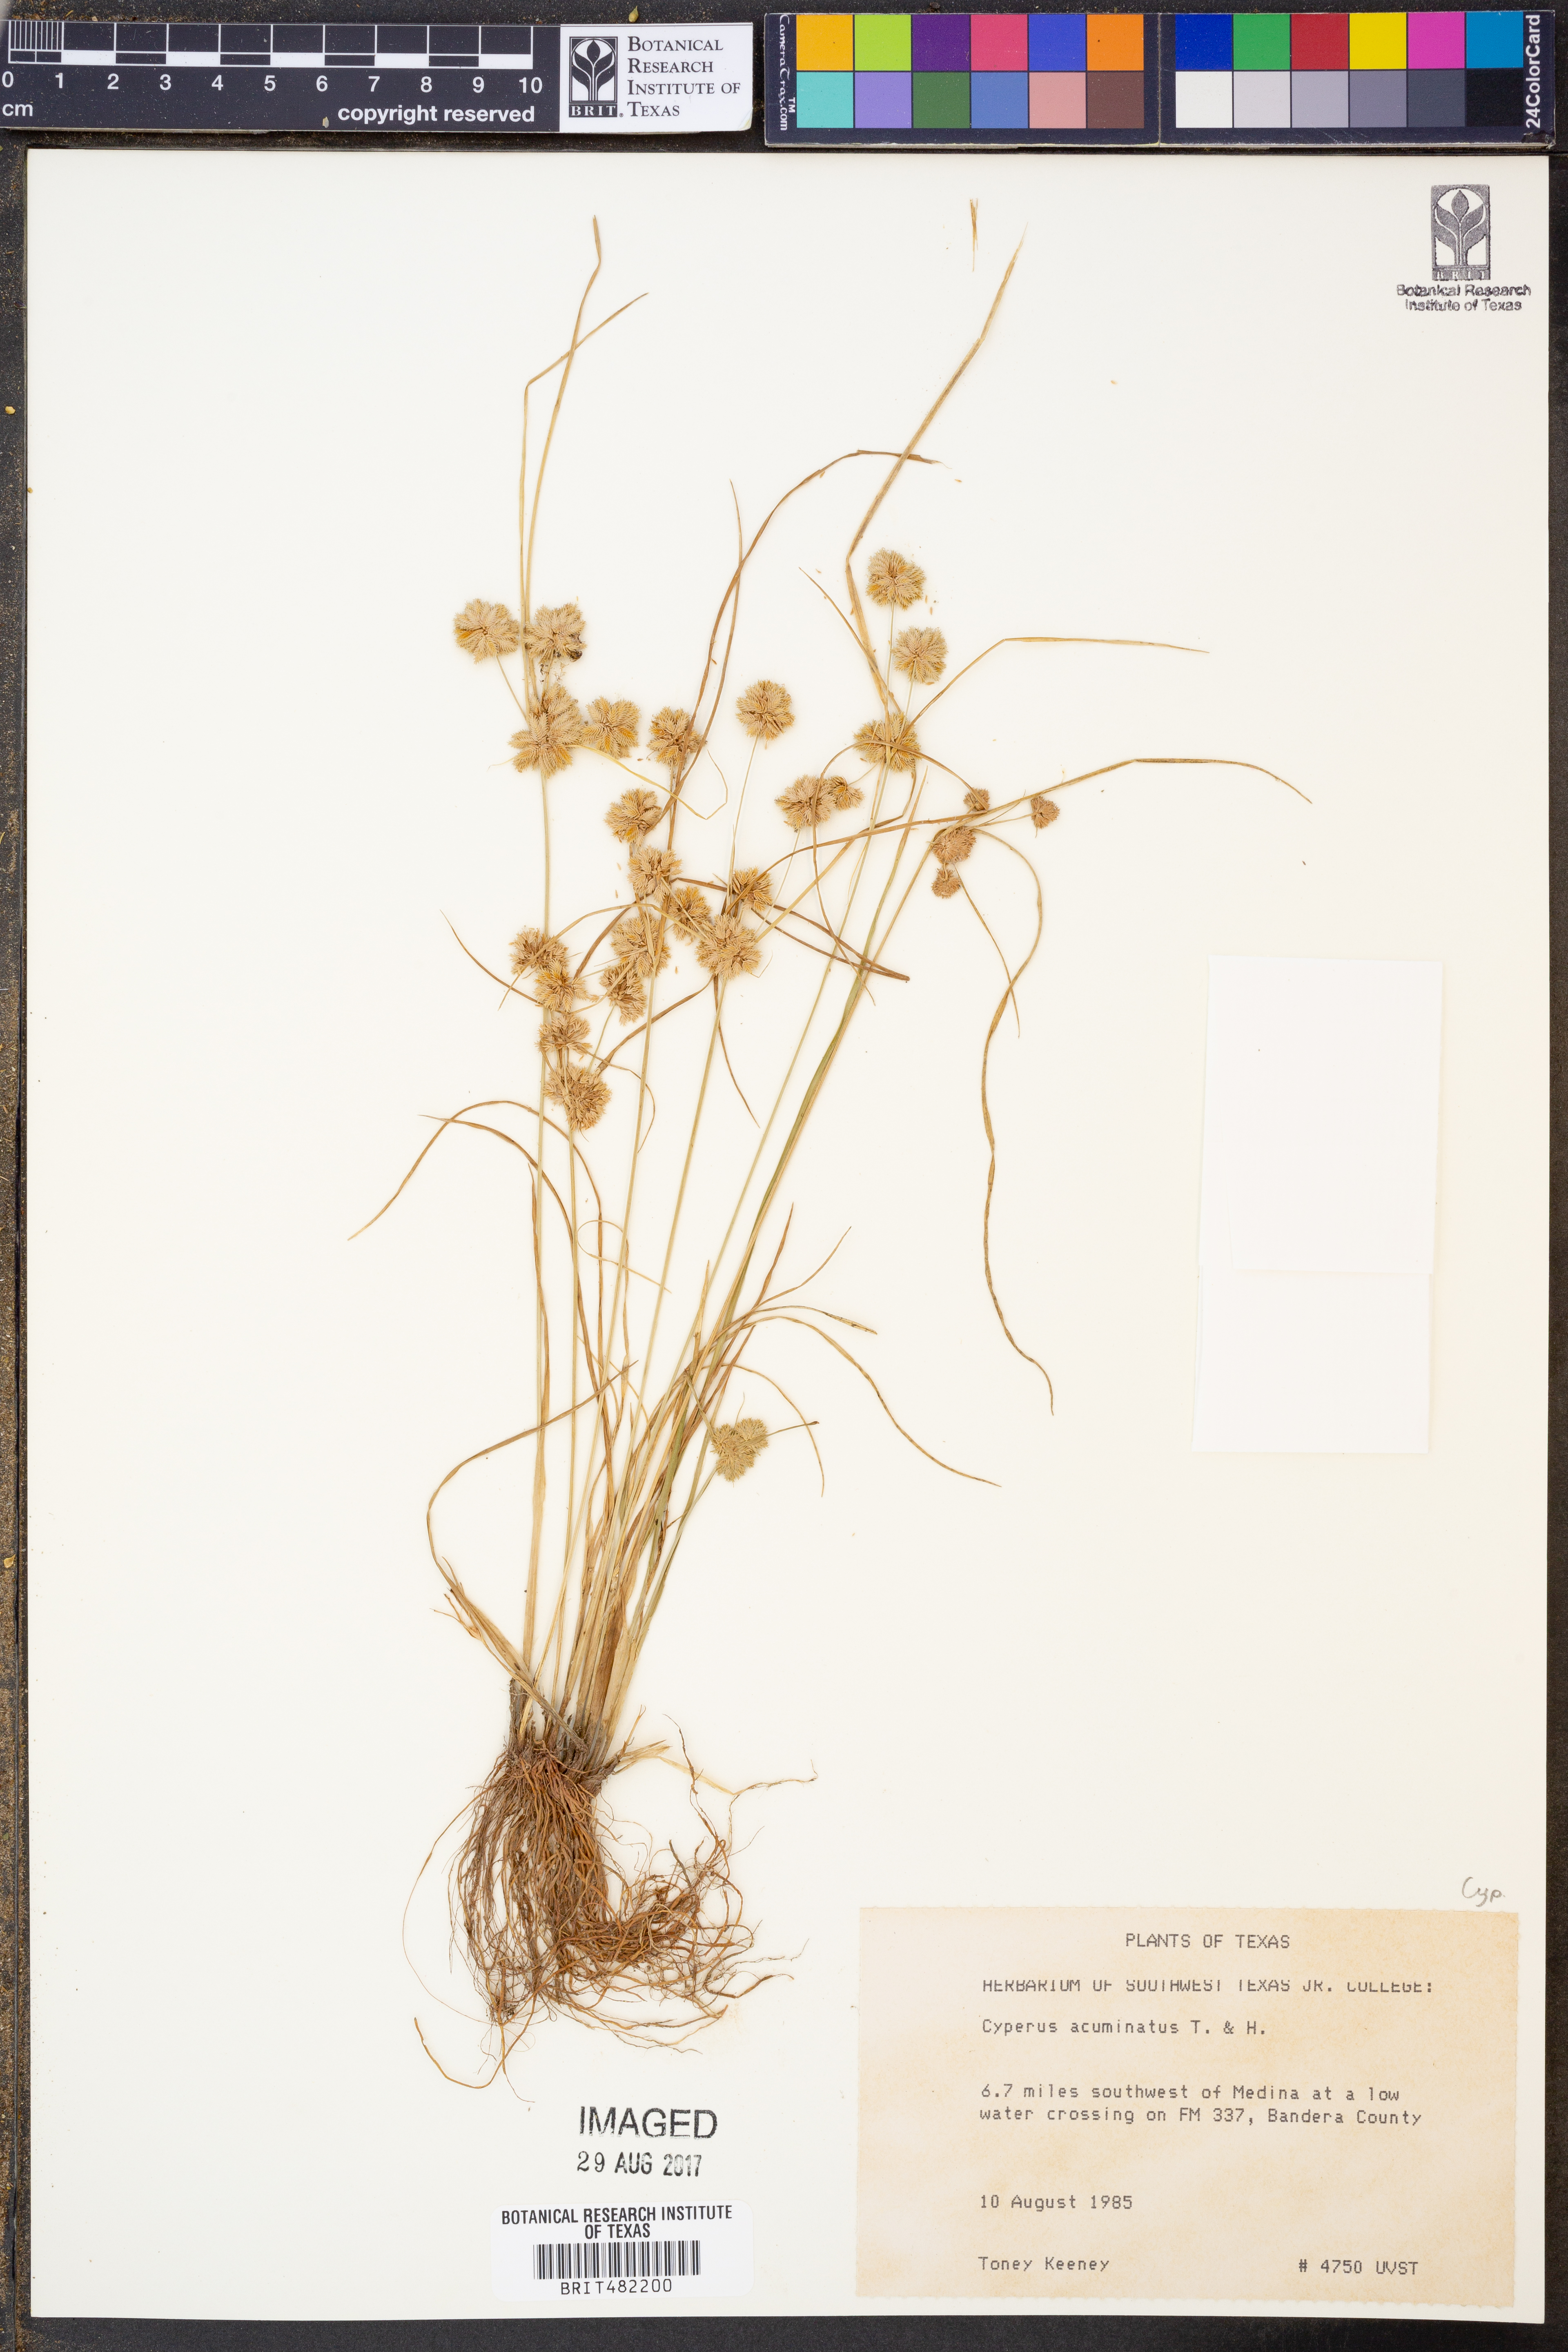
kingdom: Plantae
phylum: Tracheophyta
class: Liliopsida
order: Poales
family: Cyperaceae
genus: Cyperus
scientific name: Cyperus acuminatus
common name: Short-pointed cyperus
